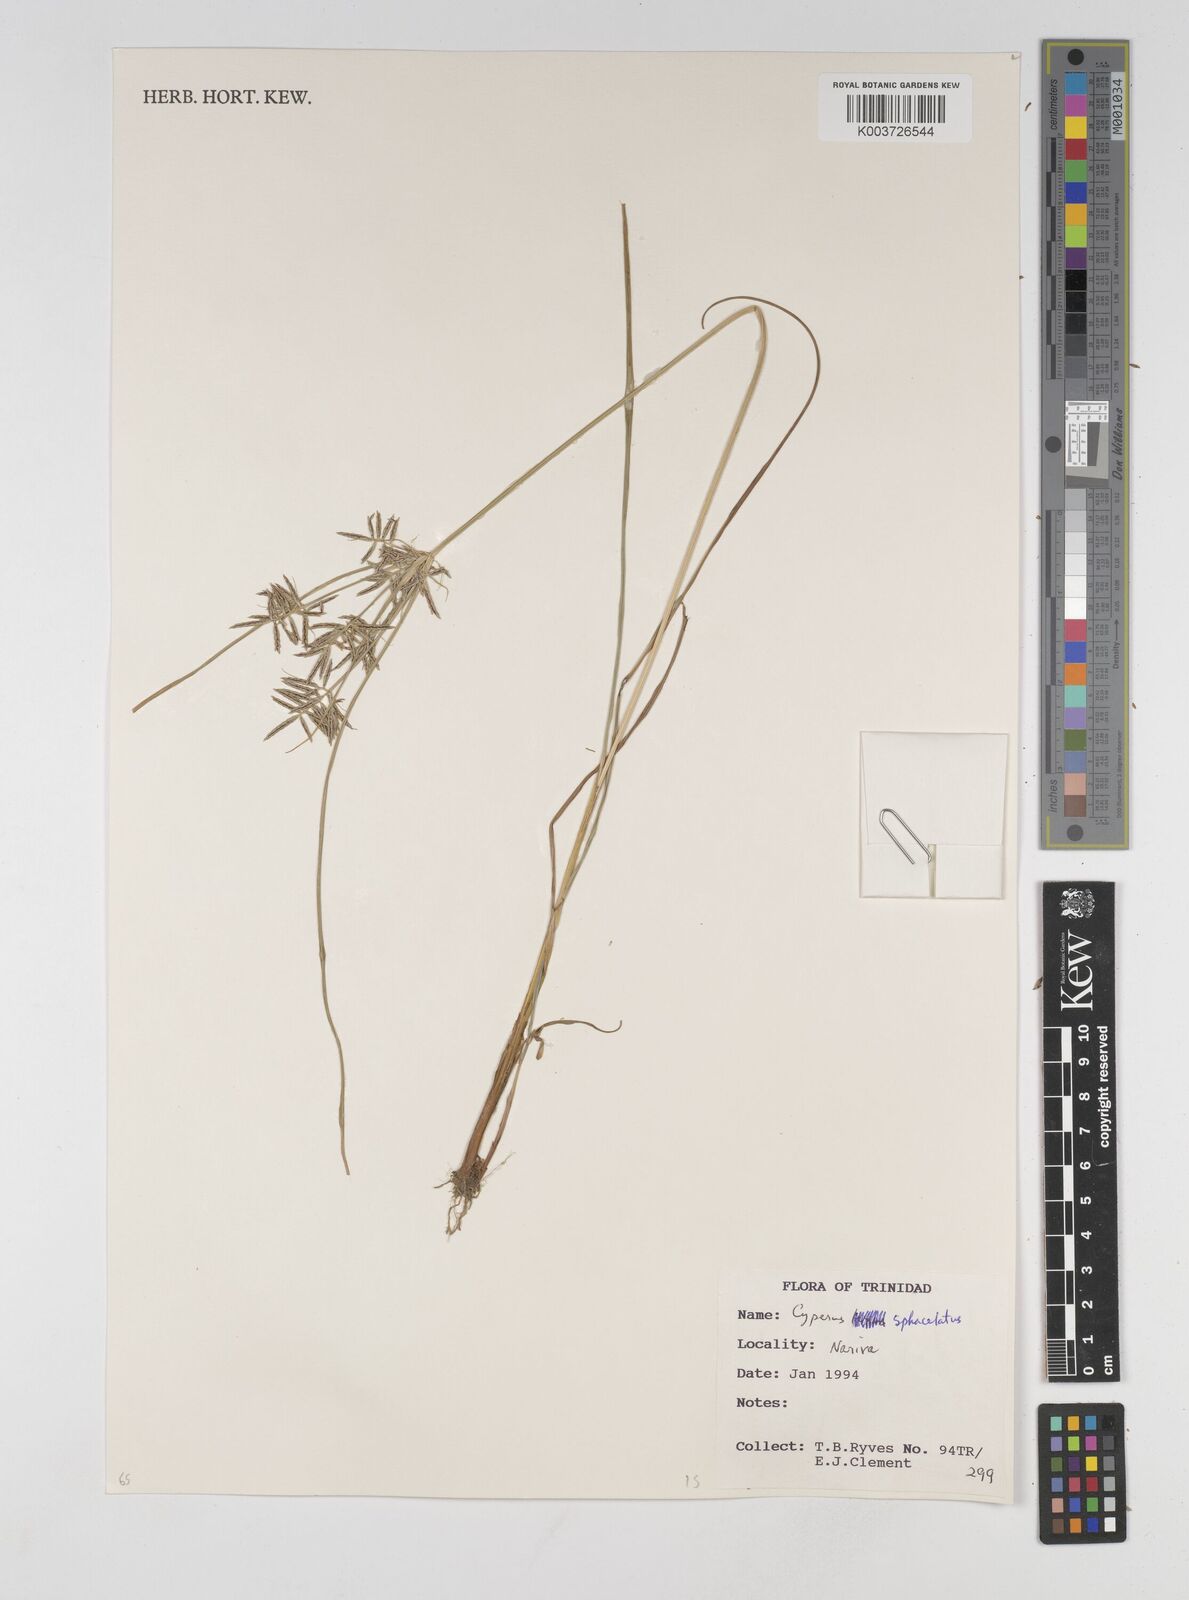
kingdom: Plantae
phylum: Tracheophyta
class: Liliopsida
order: Poales
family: Cyperaceae
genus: Cyperus
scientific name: Cyperus sphacelatus
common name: Roadside flatsedge
